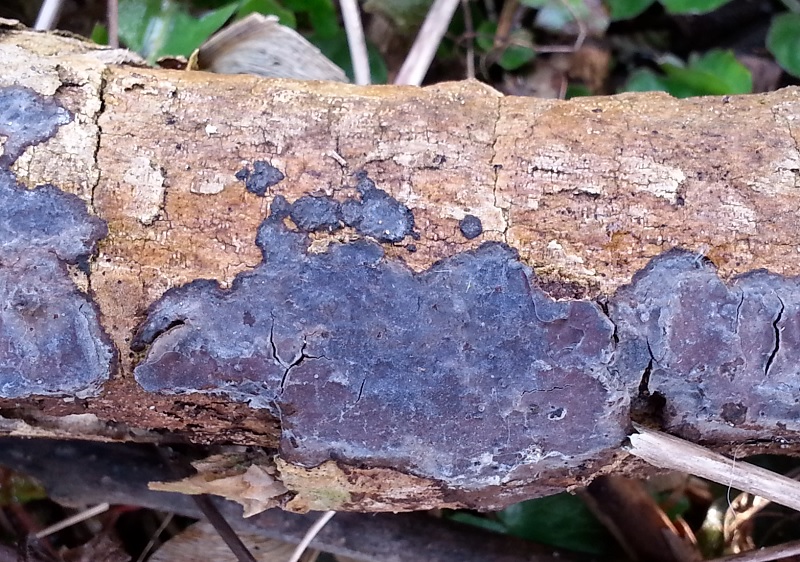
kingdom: Fungi
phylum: Basidiomycota
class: Agaricomycetes
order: Russulales
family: Peniophoraceae
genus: Peniophora
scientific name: Peniophora limitata
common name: mørkrandet voksskind
